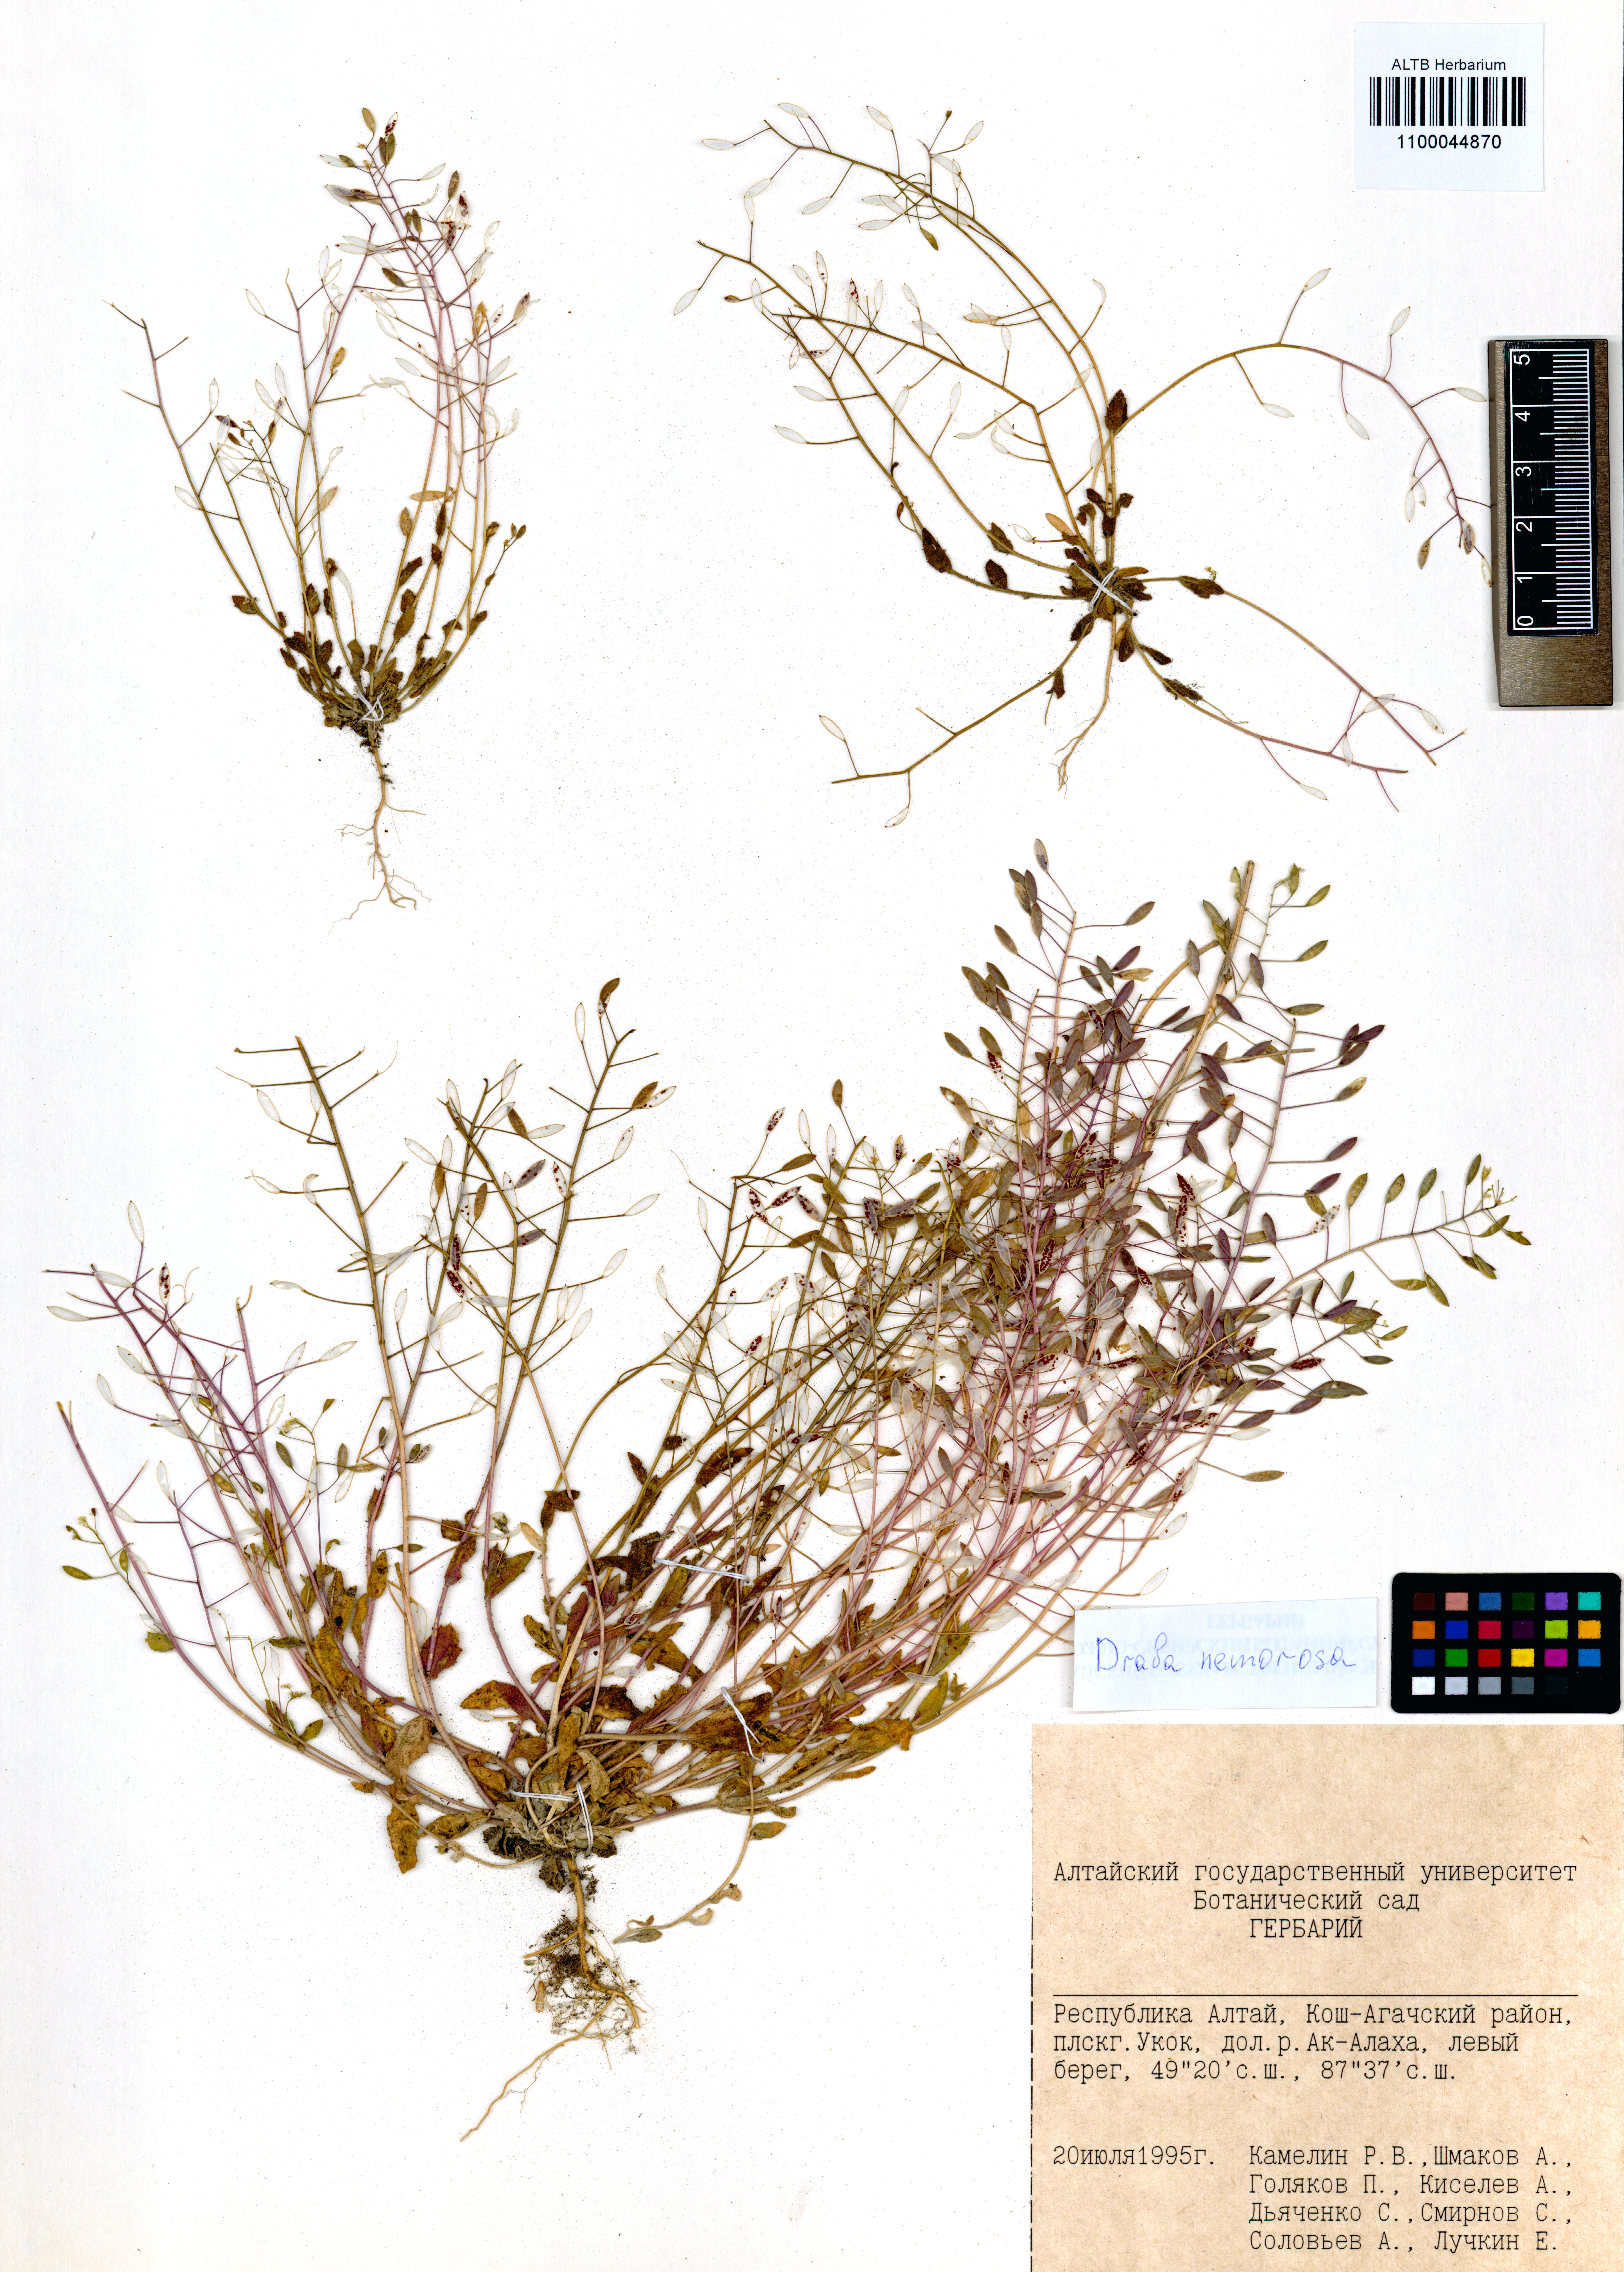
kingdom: Plantae
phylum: Tracheophyta
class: Magnoliopsida
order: Brassicales
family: Brassicaceae
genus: Draba
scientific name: Draba nemorosa
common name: Wood whitlow-grass
